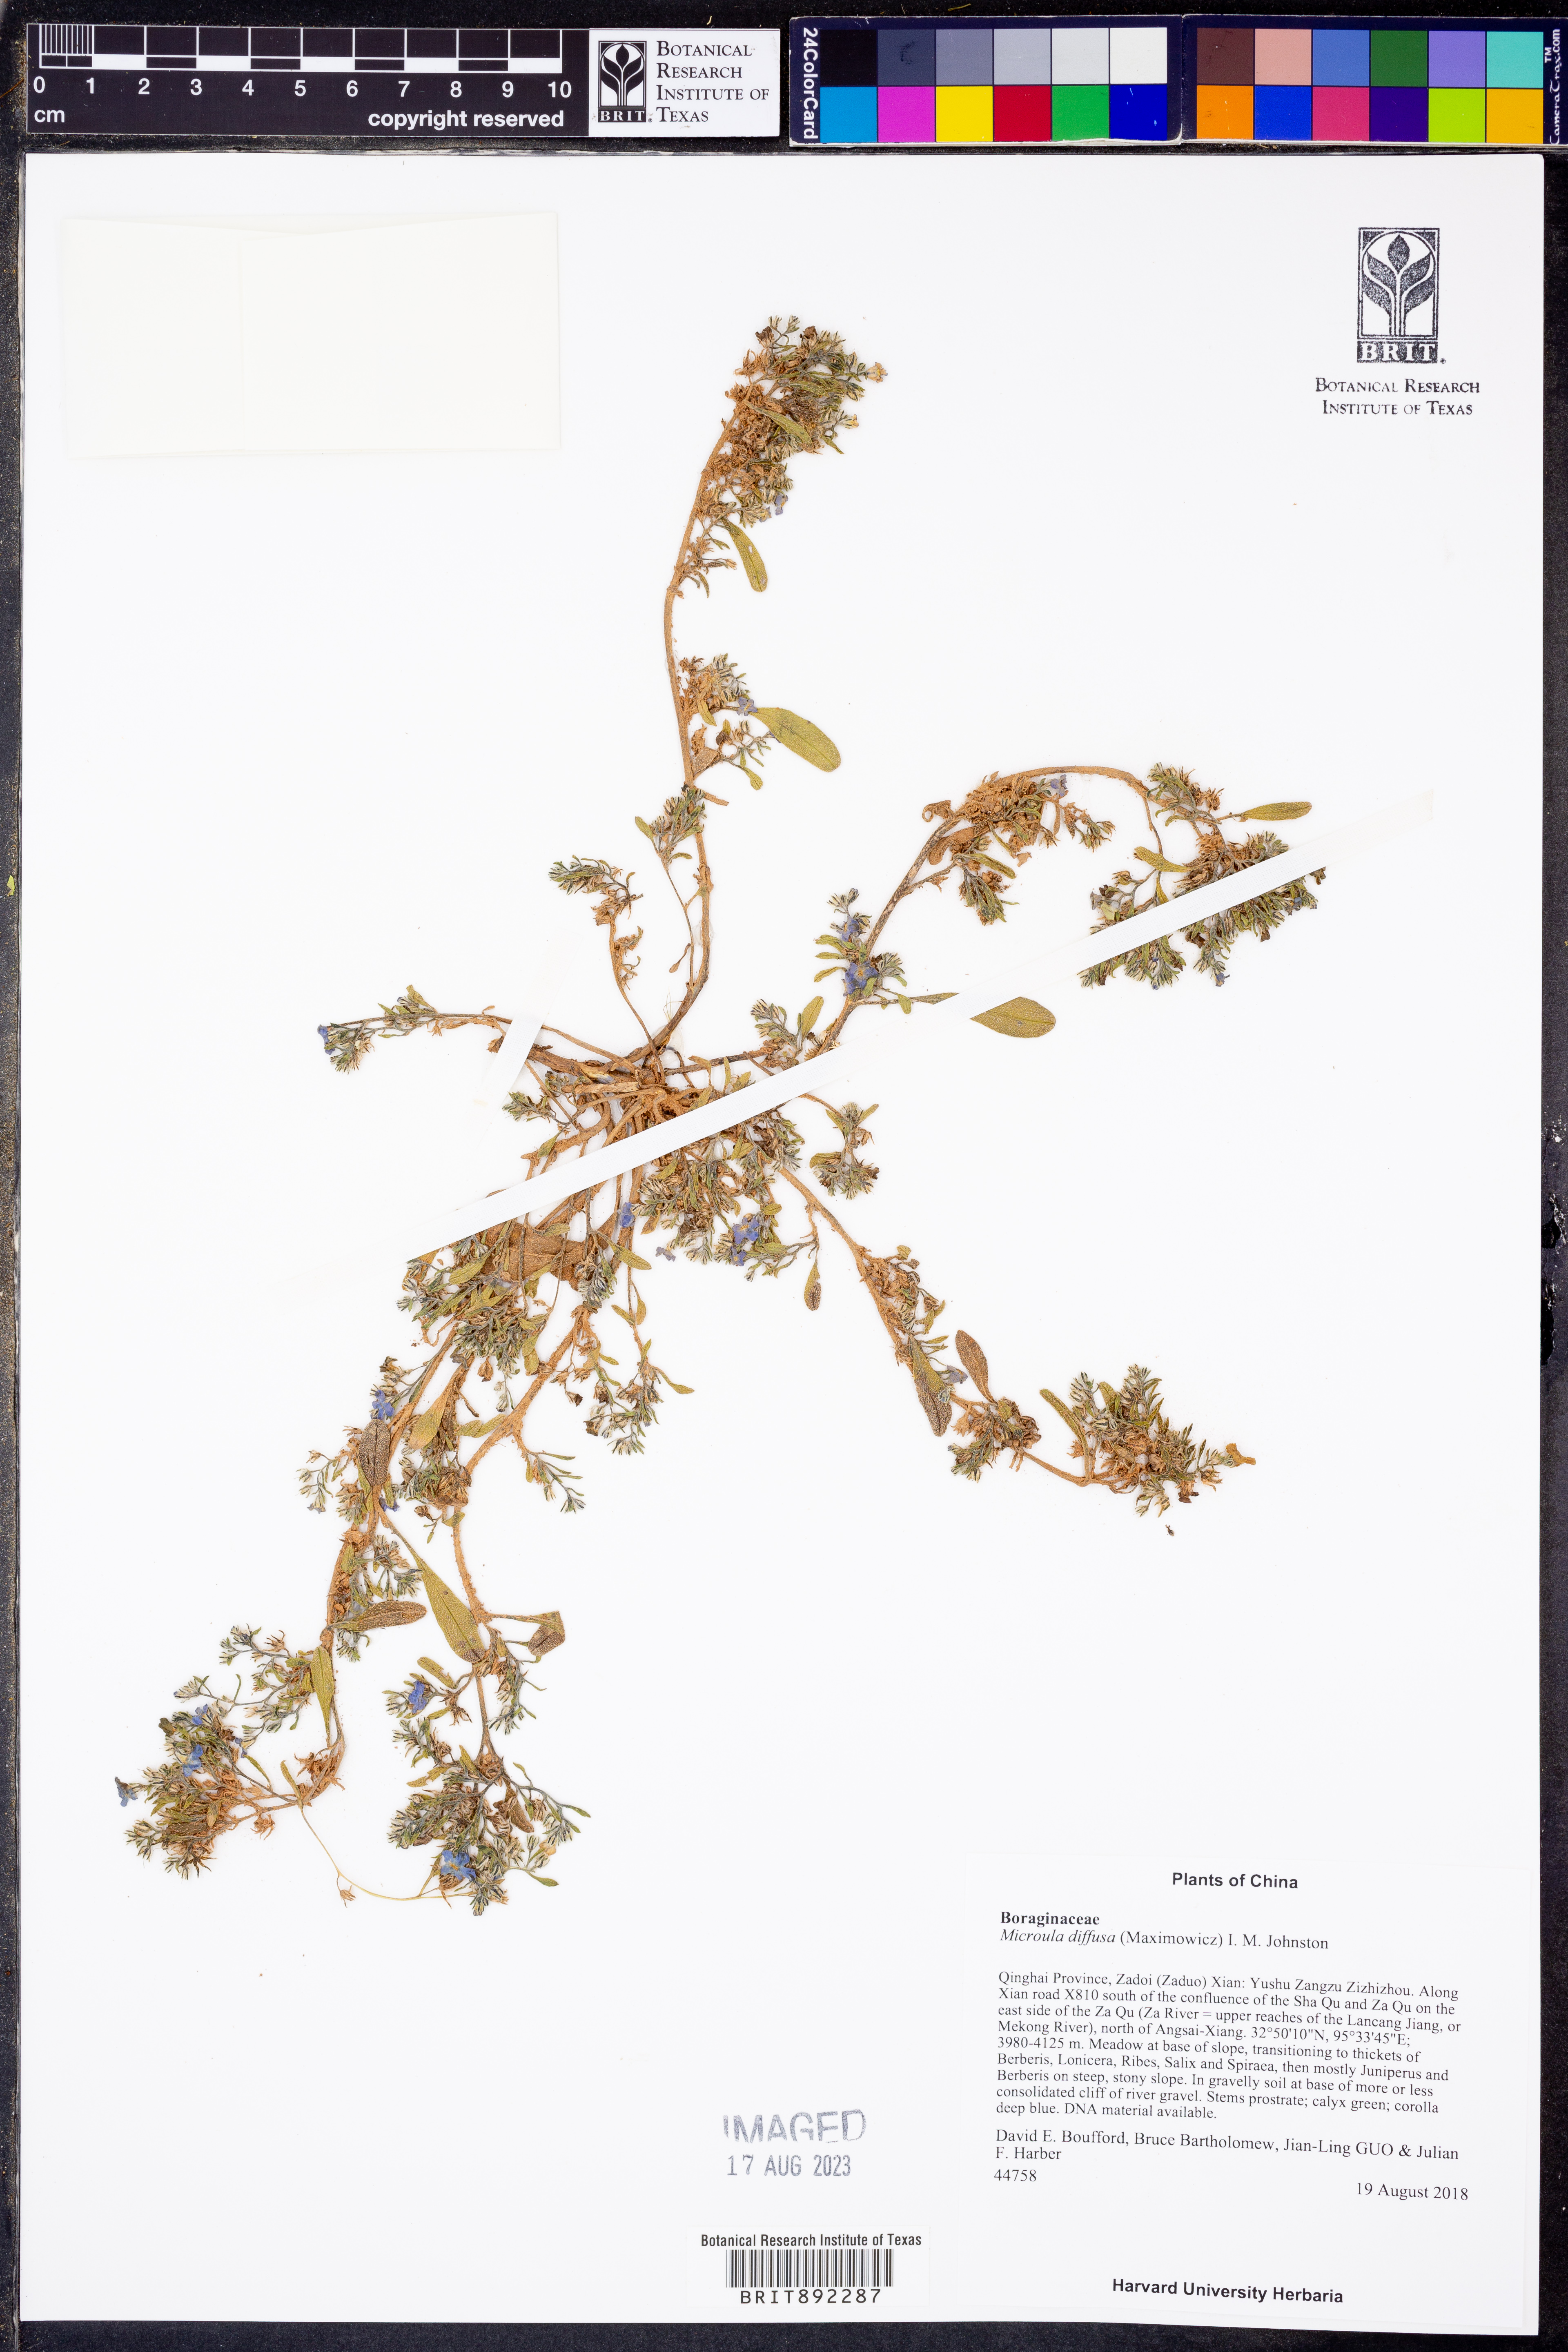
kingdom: Plantae
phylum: Tracheophyta
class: Magnoliopsida
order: Boraginales
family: Boraginaceae
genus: Microula
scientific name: Microula diffusa
